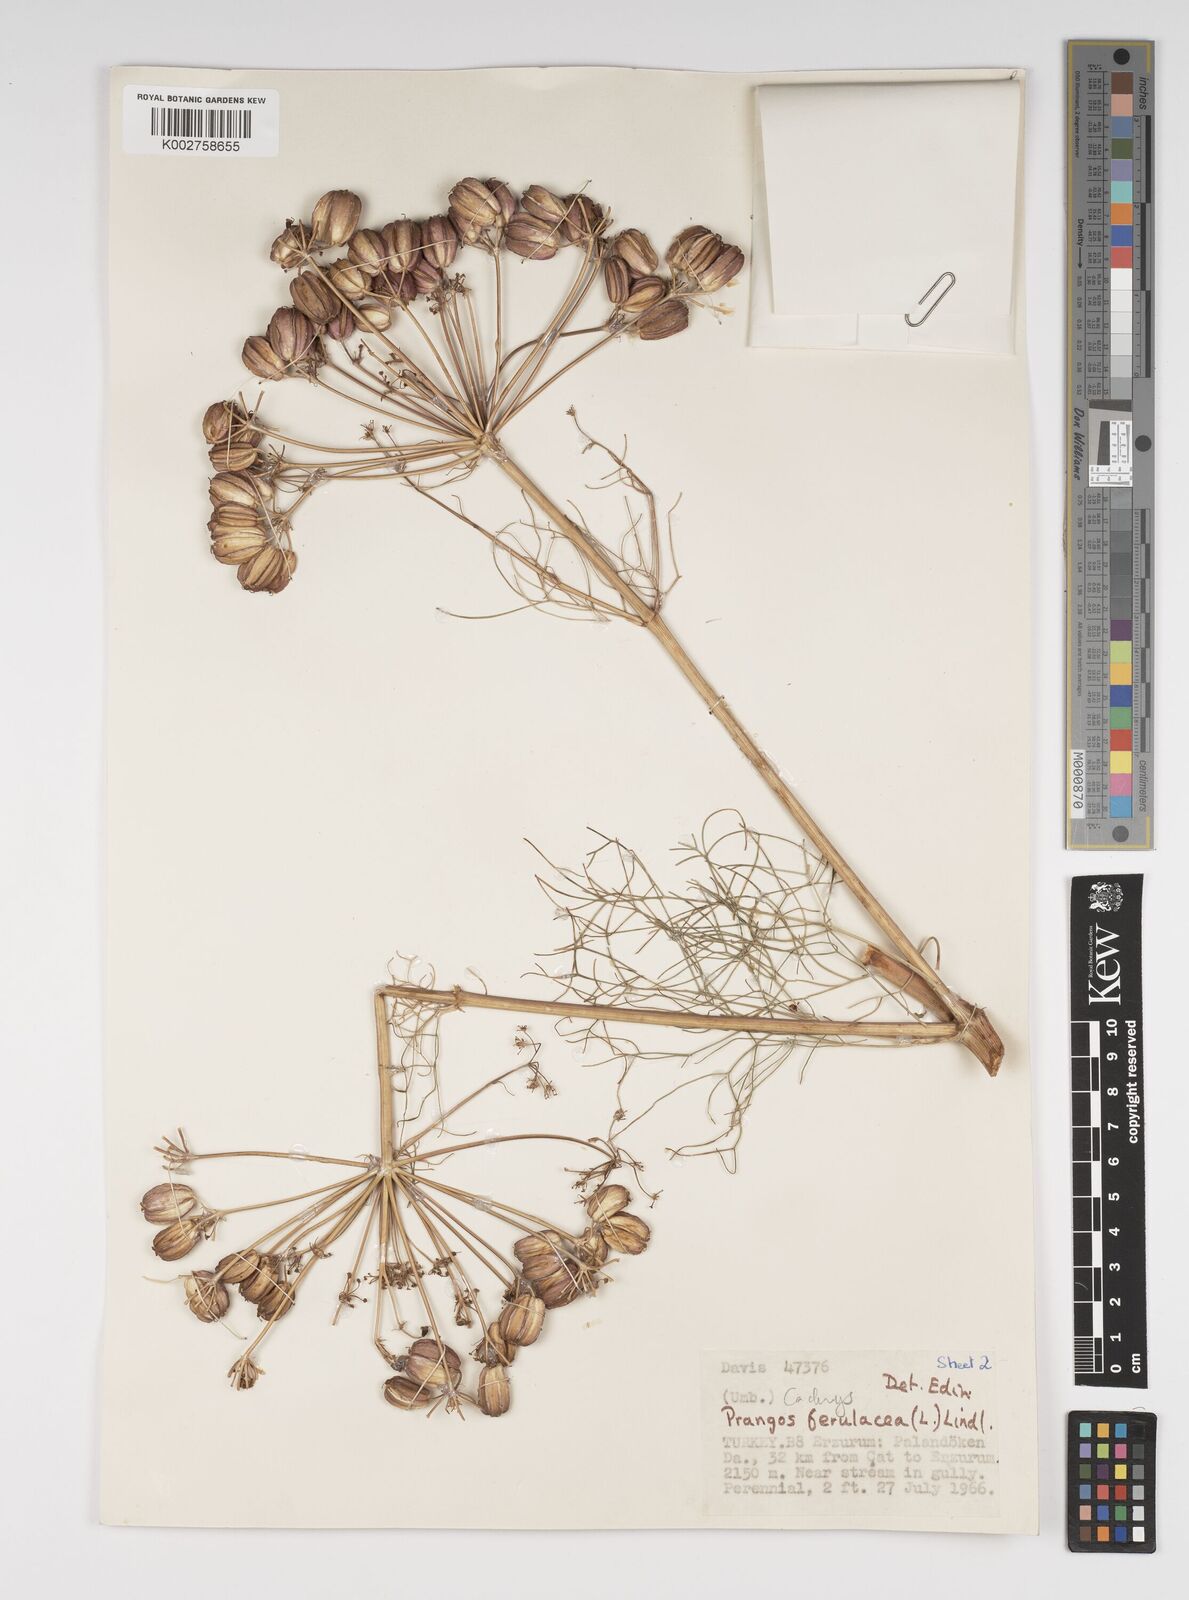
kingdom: Plantae
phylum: Tracheophyta
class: Magnoliopsida
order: Apiales
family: Apiaceae
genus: Prangos
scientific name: Prangos ferulacea
